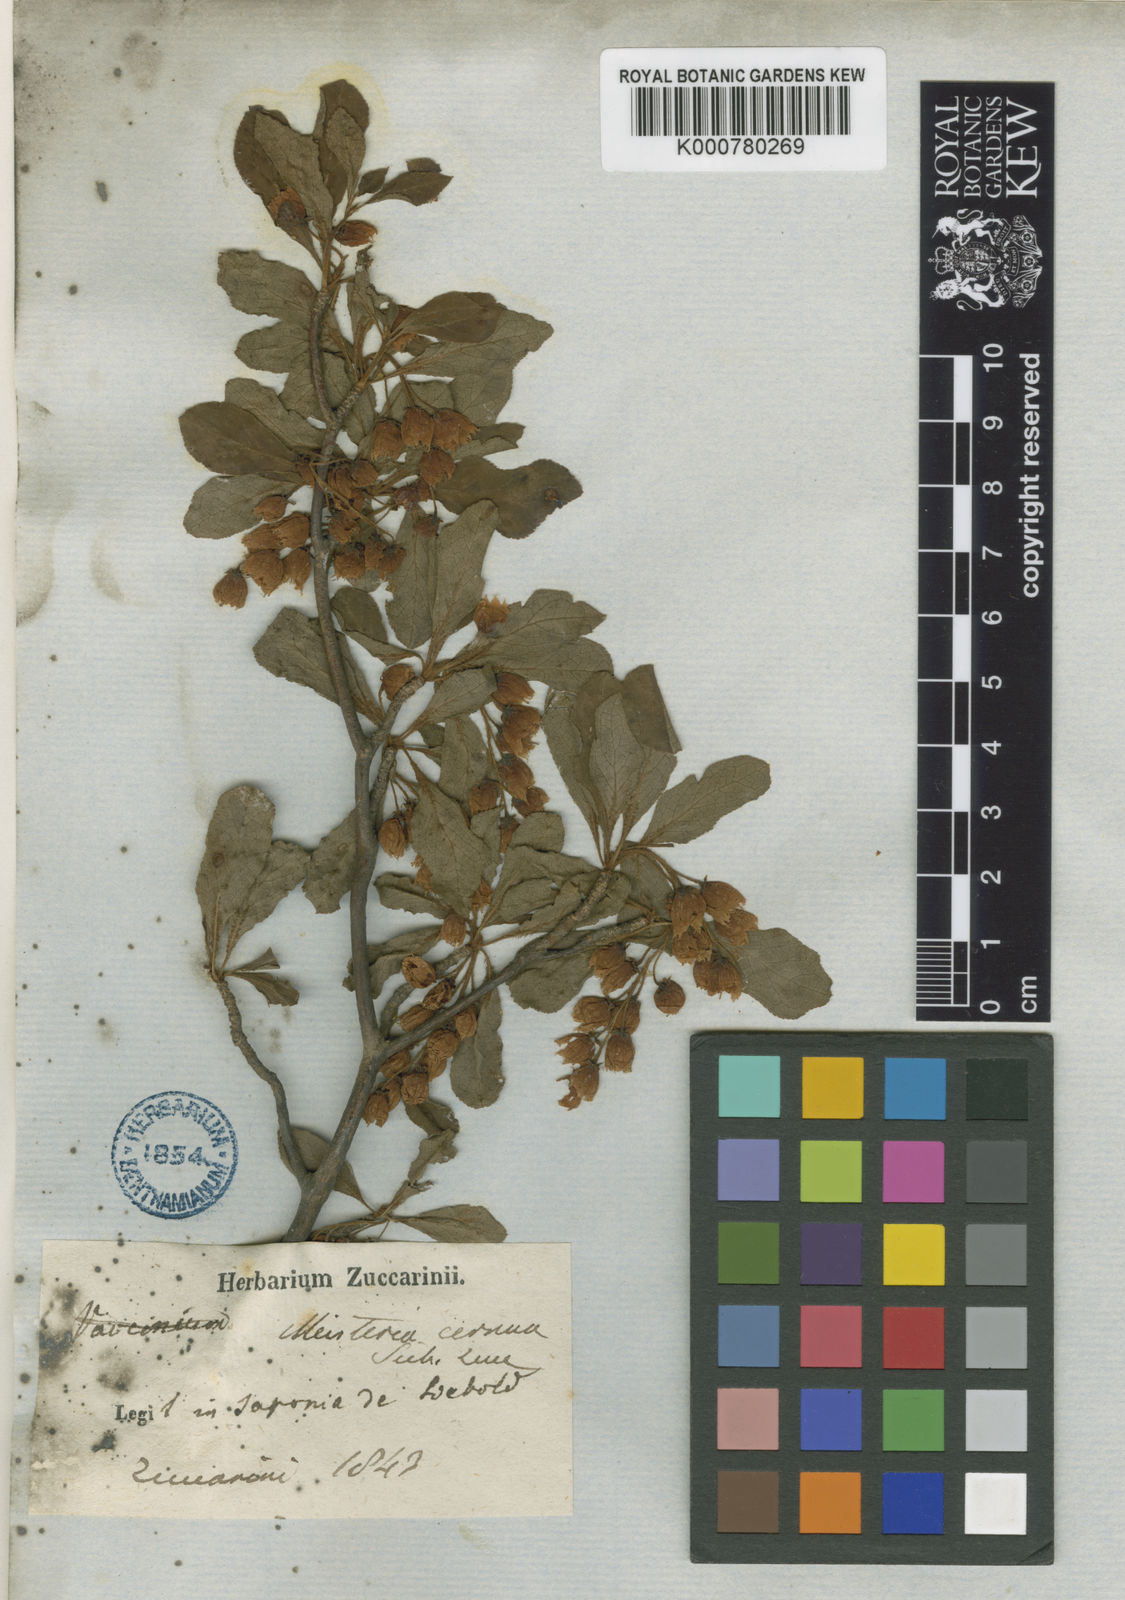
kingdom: Plantae
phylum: Tracheophyta
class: Magnoliopsida
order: Ericales
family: Ericaceae
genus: Enkianthus
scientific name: Enkianthus
